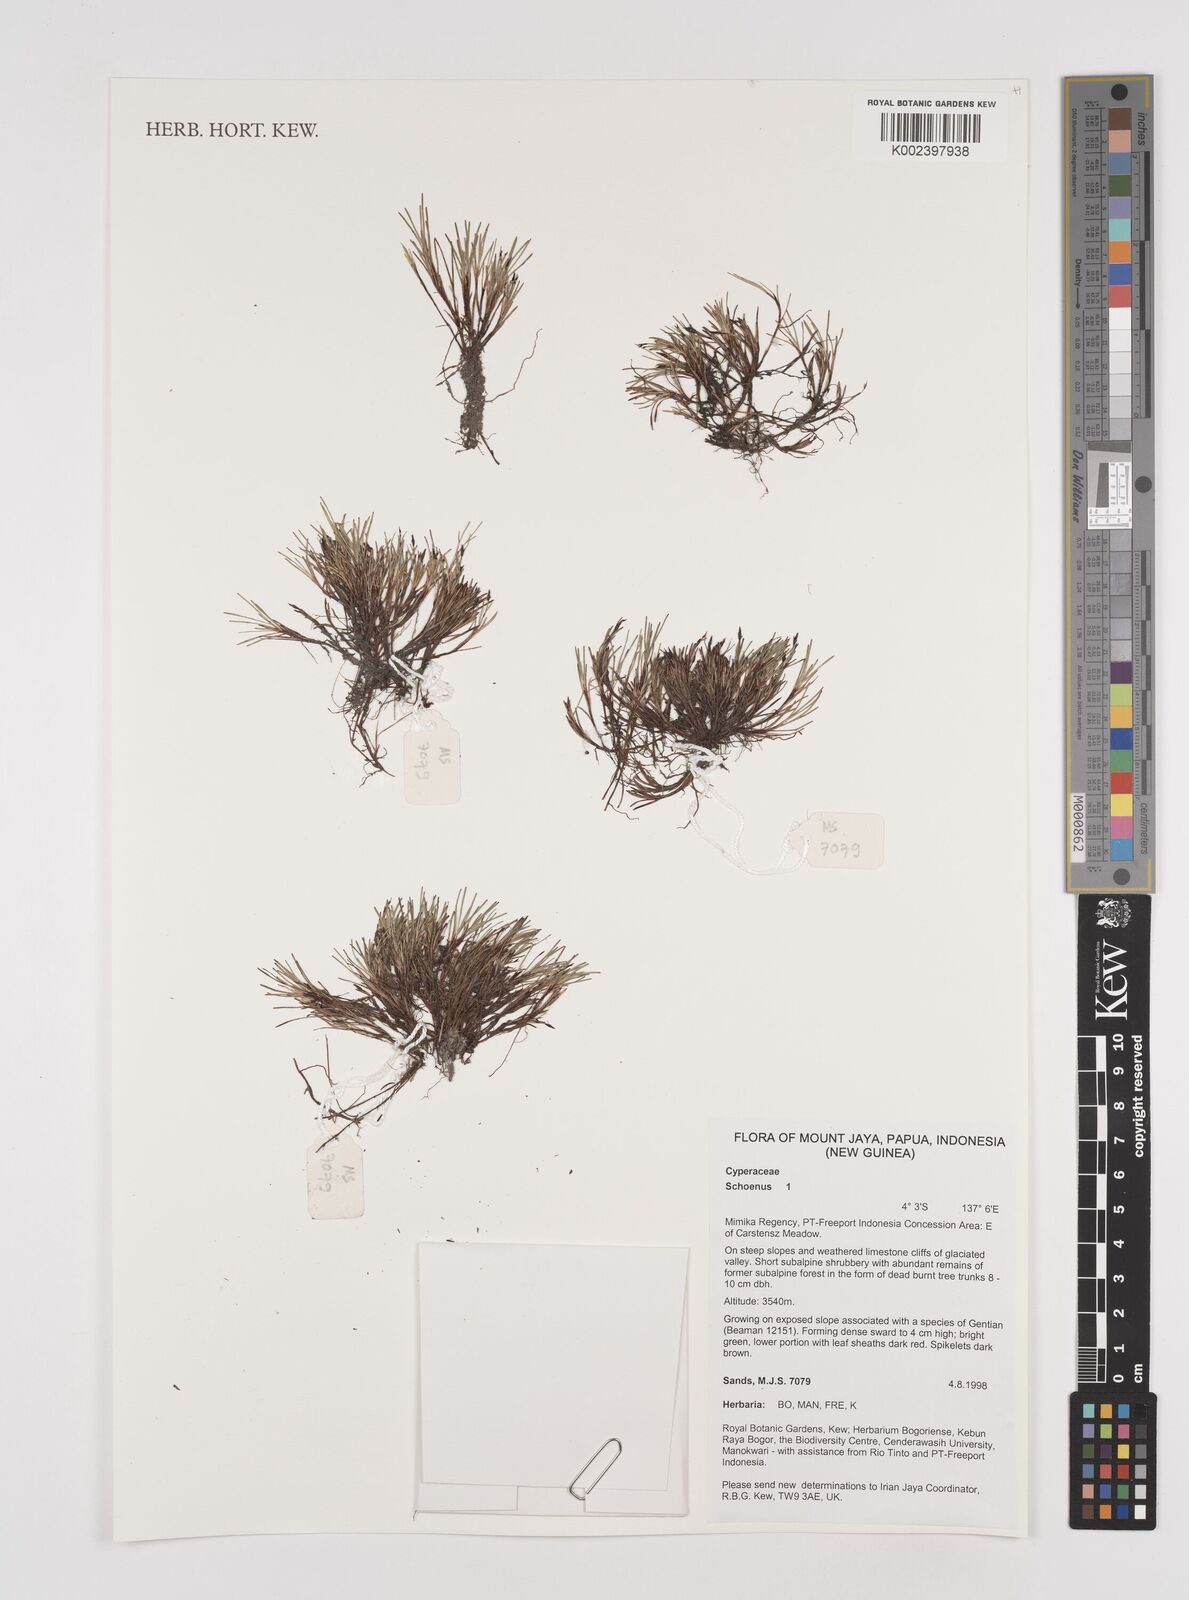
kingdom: Plantae
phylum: Tracheophyta
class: Liliopsida
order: Poales
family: Cyperaceae
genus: Schoenus
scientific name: Schoenus
